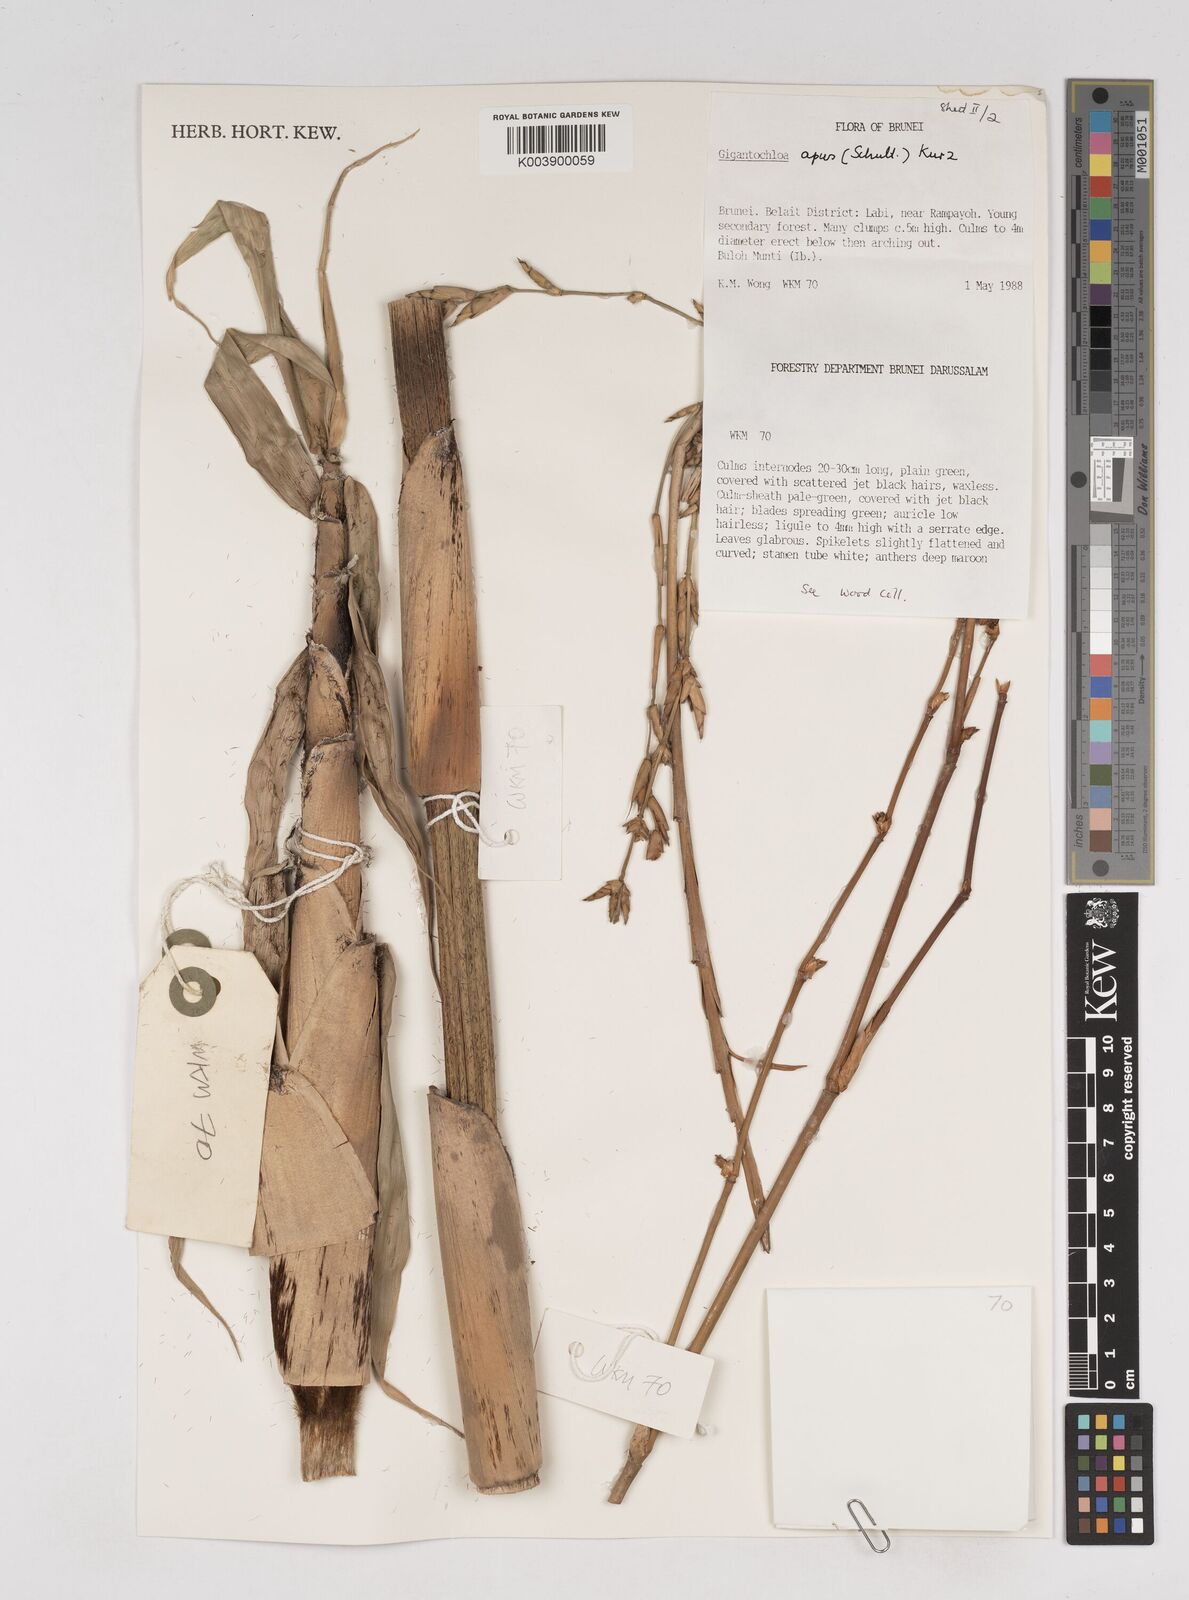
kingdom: Plantae
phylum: Tracheophyta
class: Liliopsida
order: Poales
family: Poaceae
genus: Gigantochloa
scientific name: Gigantochloa
